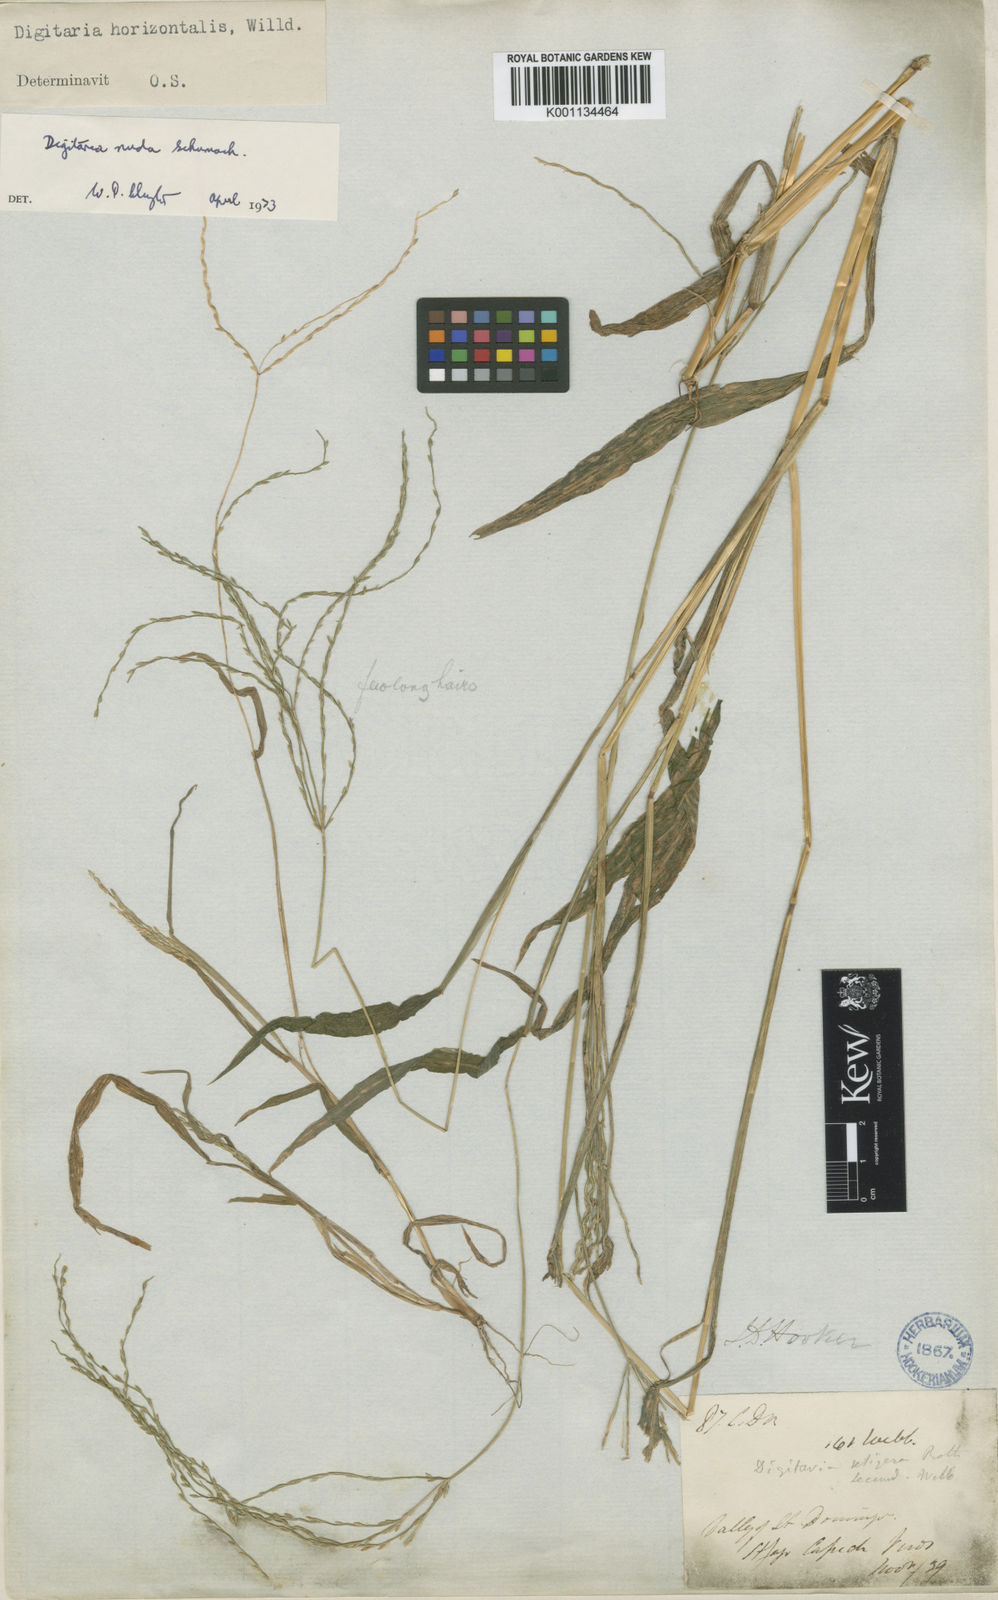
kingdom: Plantae
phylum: Tracheophyta
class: Liliopsida
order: Poales
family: Poaceae
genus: Digitaria
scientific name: Digitaria nuda
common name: Naked crabgrass
